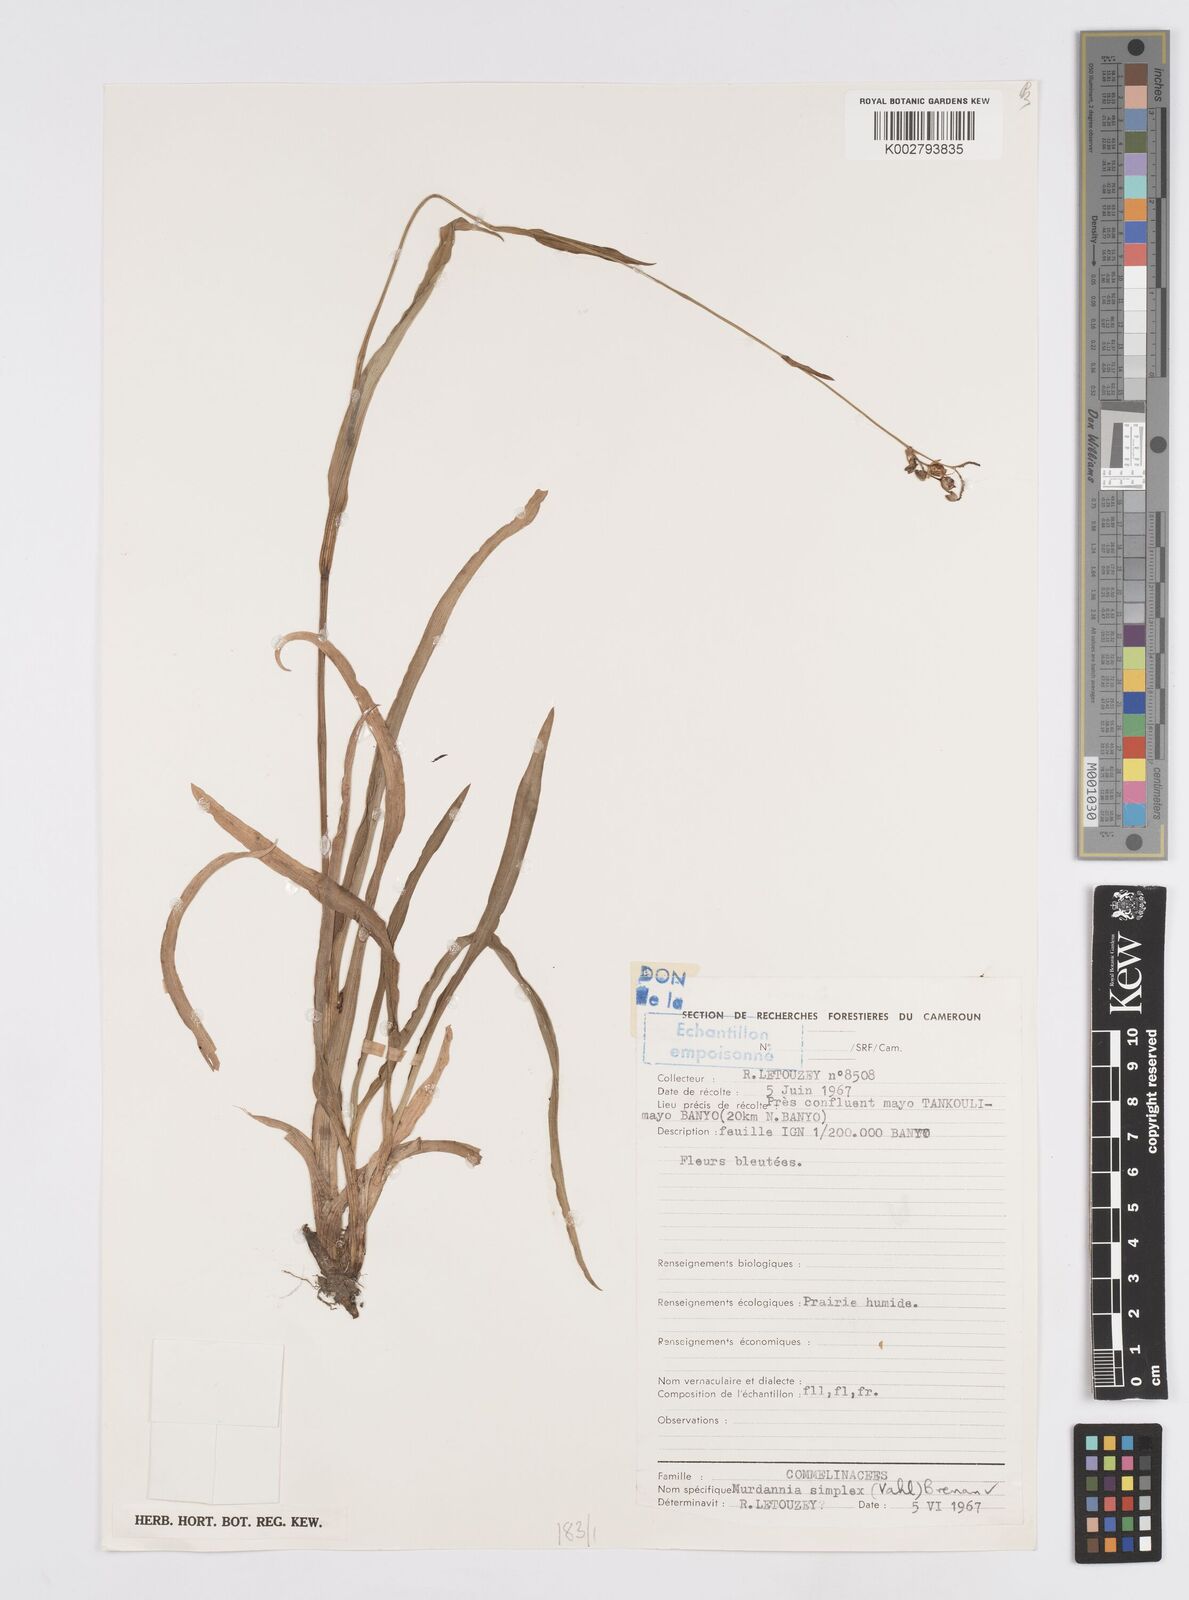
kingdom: Plantae
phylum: Tracheophyta
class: Liliopsida
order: Commelinales
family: Commelinaceae
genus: Murdannia
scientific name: Murdannia simplex
